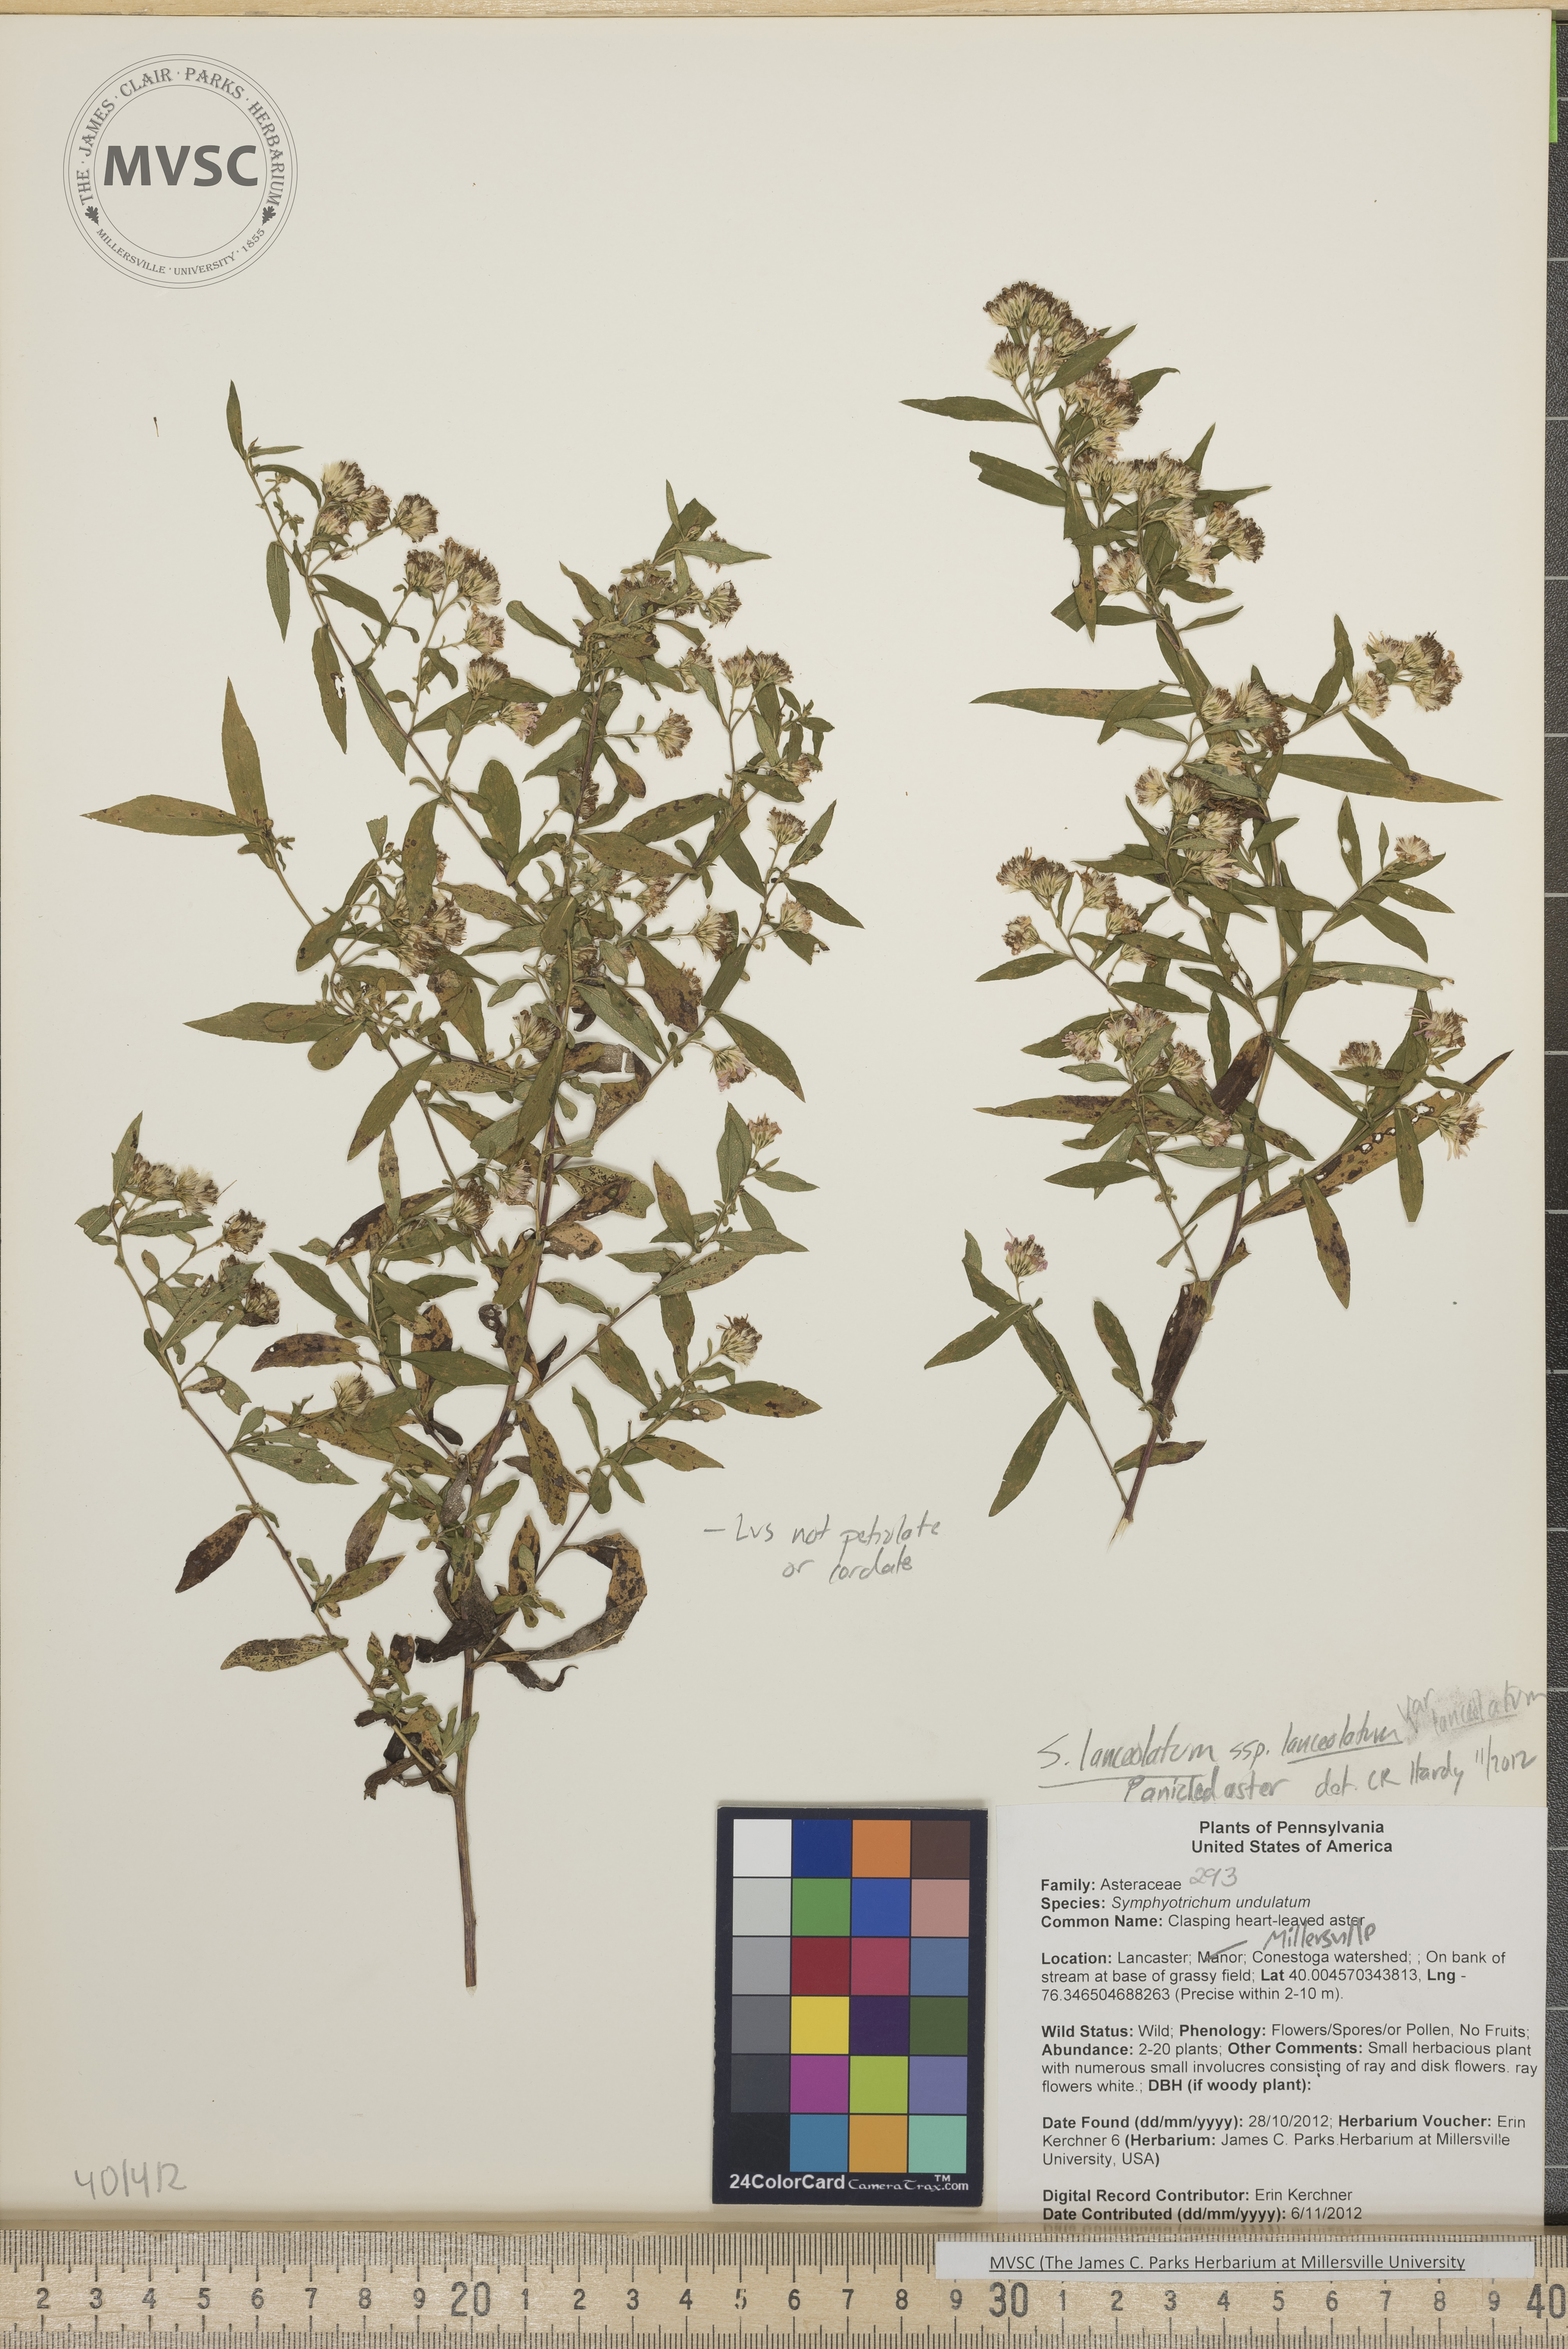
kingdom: Plantae
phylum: Tracheophyta
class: Magnoliopsida
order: Asterales
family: Asteraceae
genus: Symphyotrichum
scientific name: Symphyotrichum lanceolatum
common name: Panicled aster
